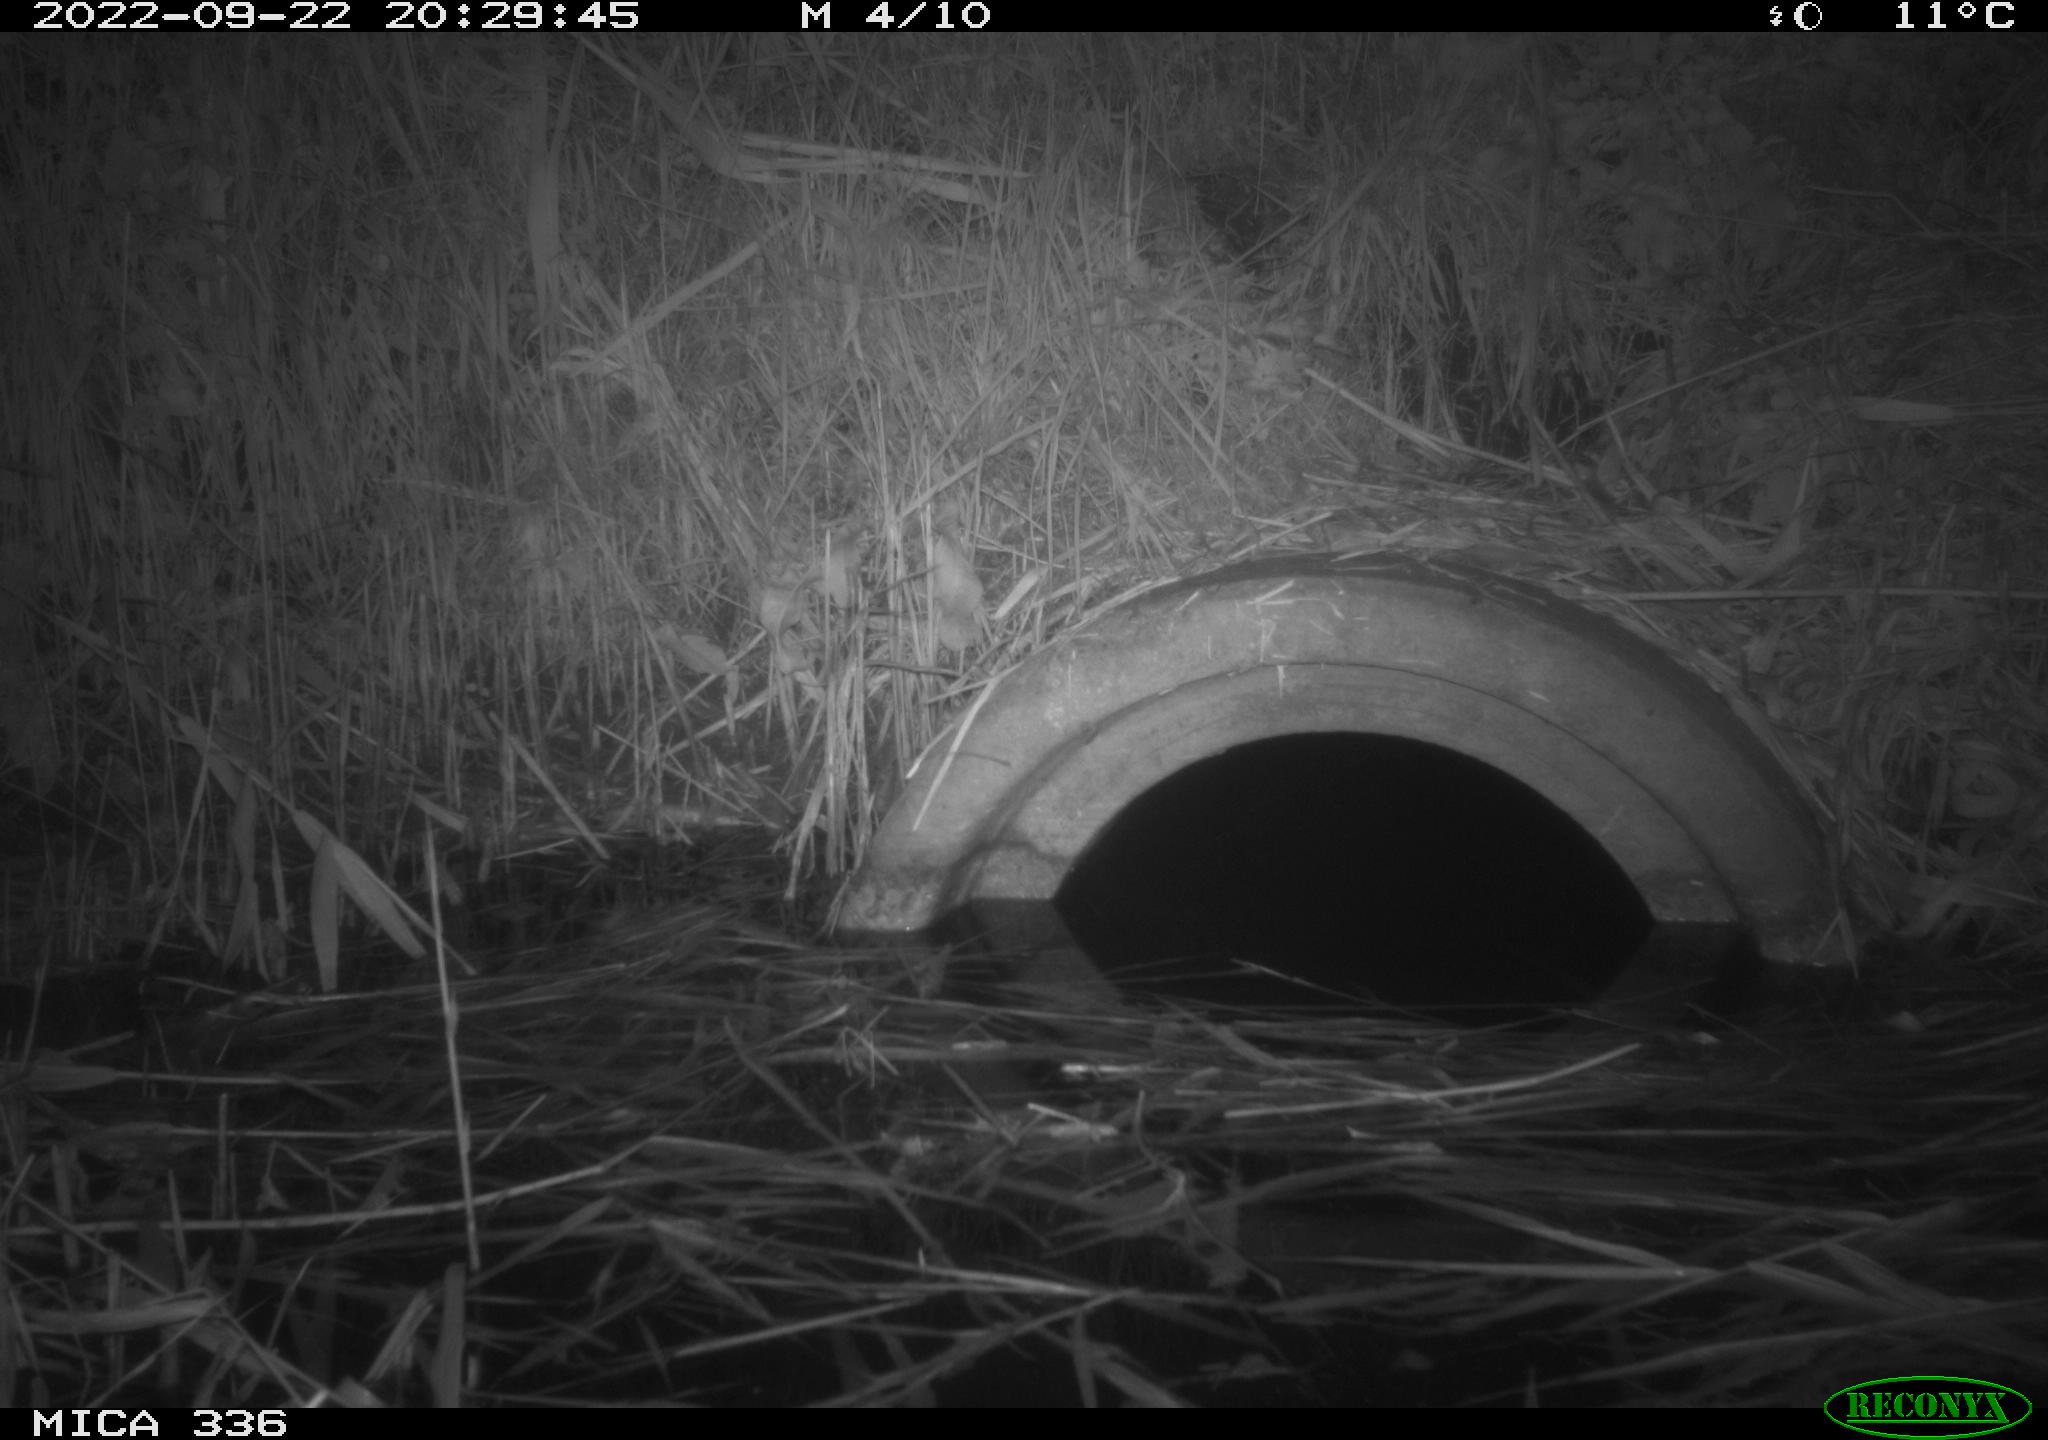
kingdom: Animalia
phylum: Chordata
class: Mammalia
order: Carnivora
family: Mustelidae
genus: Mustela
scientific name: Mustela nivalis
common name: Least weasel
